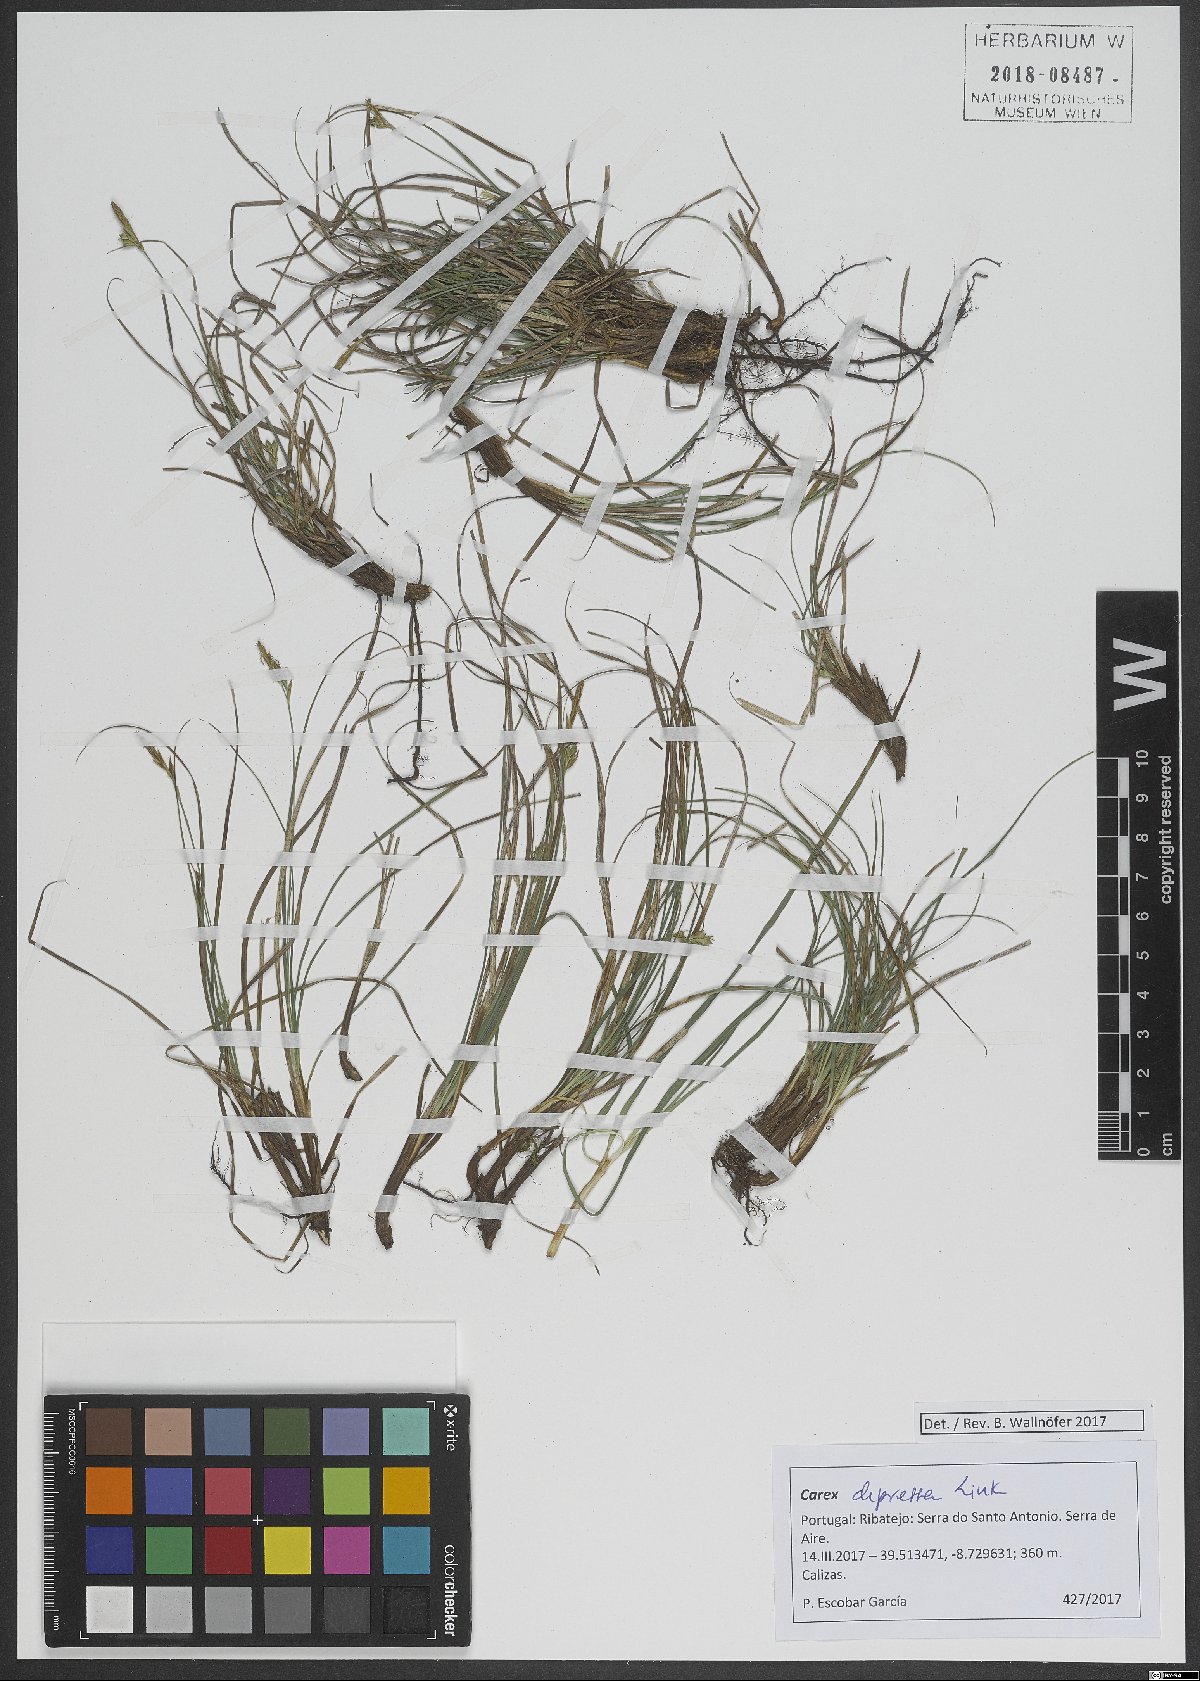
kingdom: Plantae
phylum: Tracheophyta
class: Liliopsida
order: Poales
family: Cyperaceae
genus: Carex
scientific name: Carex depressa
